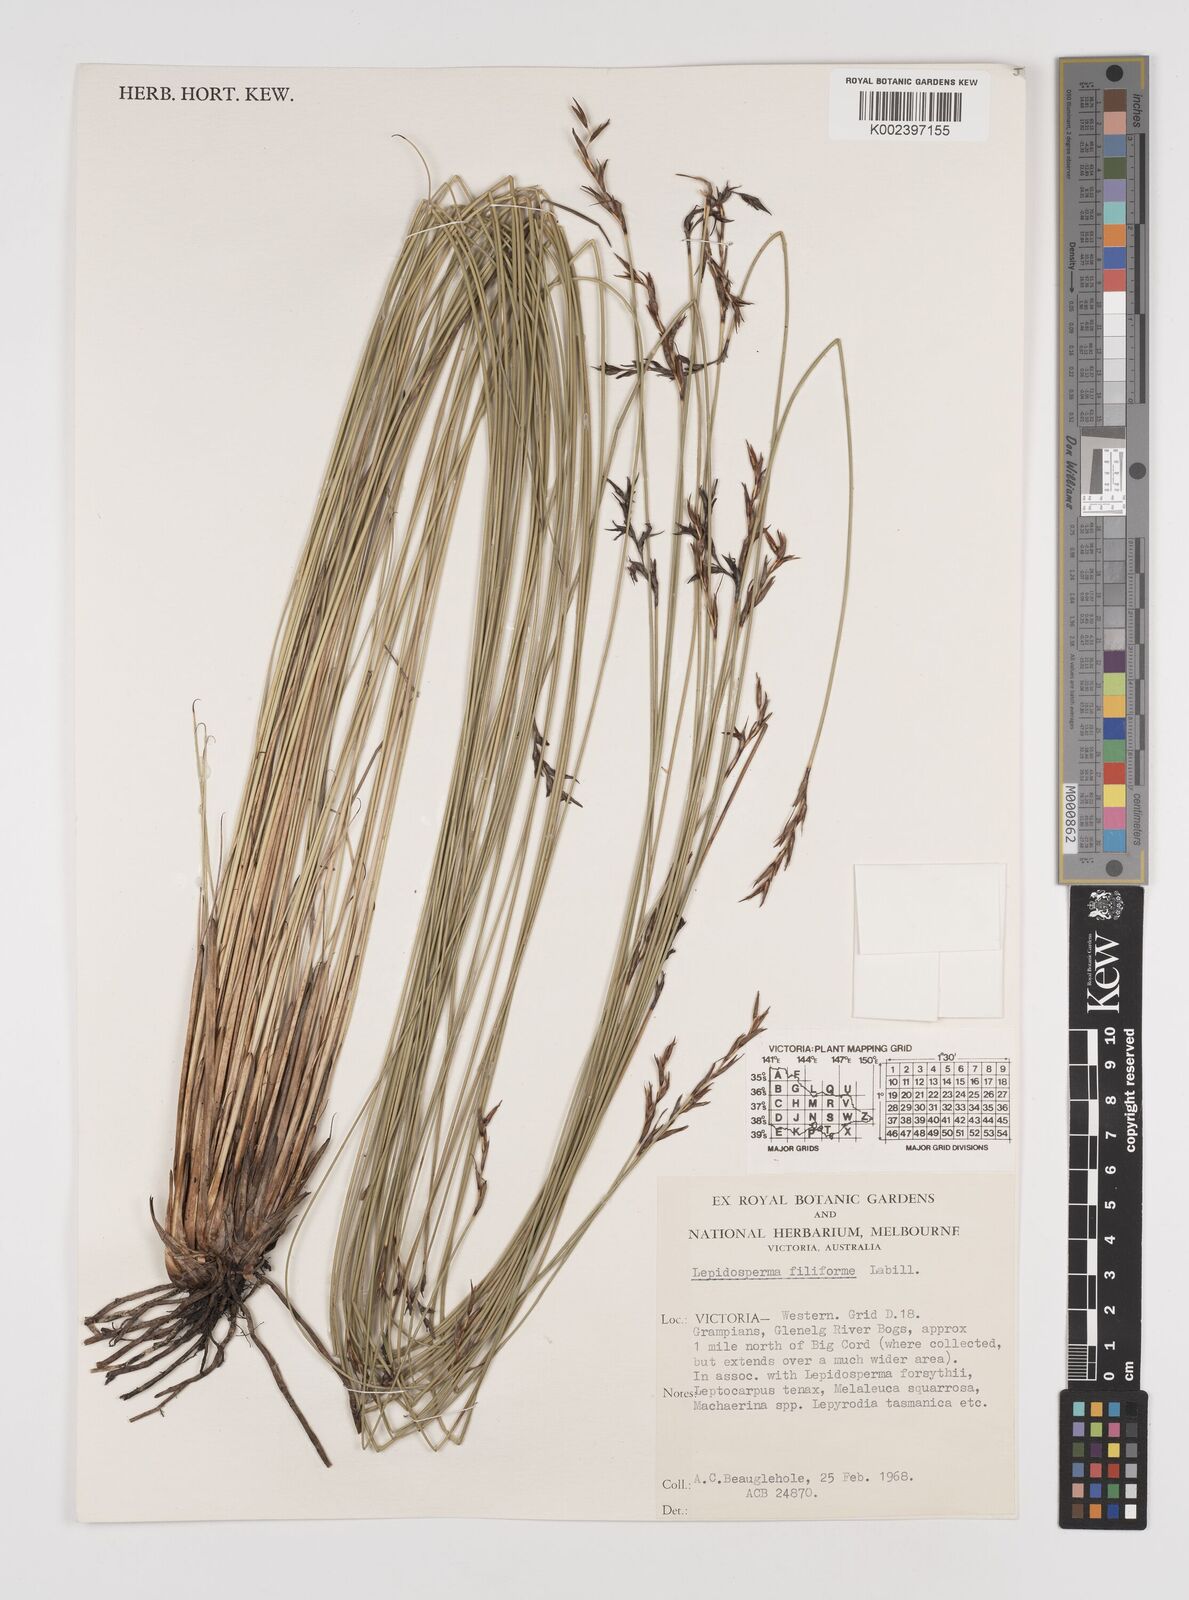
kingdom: Plantae
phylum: Tracheophyta
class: Liliopsida
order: Poales
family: Cyperaceae
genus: Lepidosperma
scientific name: Lepidosperma filiforme
